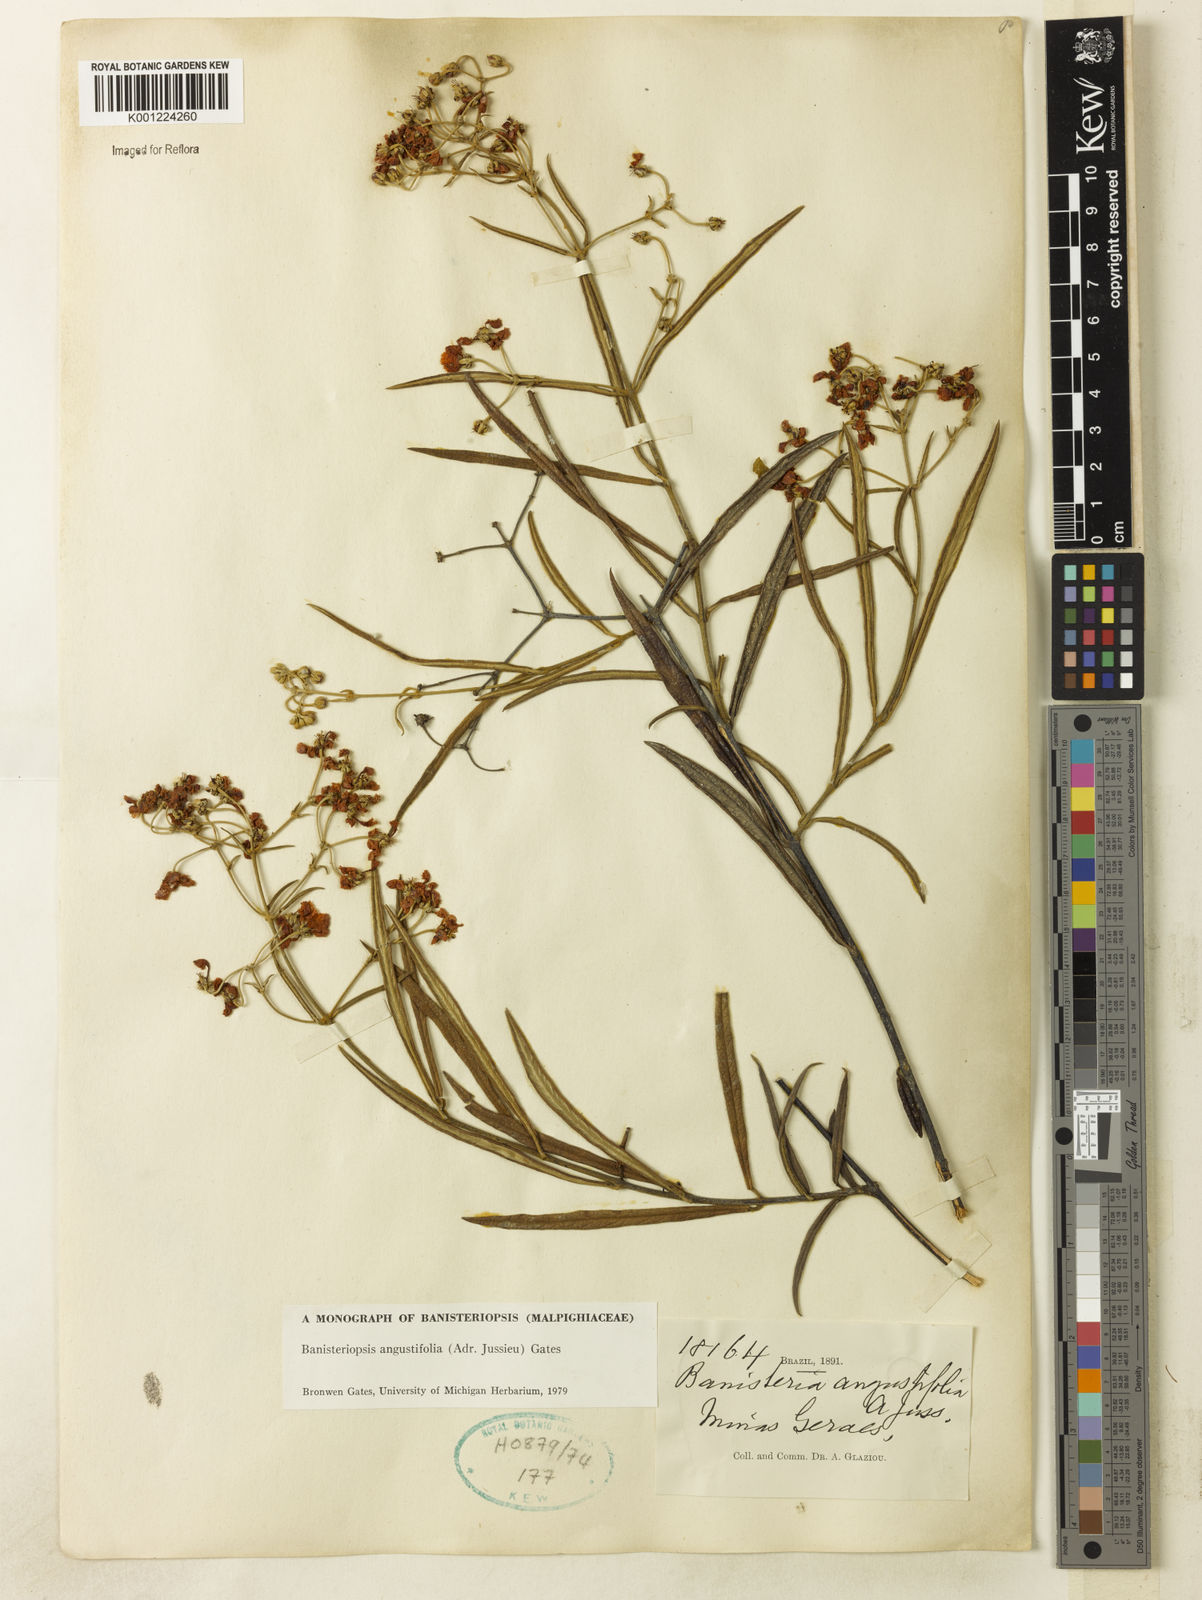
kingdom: Plantae
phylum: Tracheophyta
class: Magnoliopsida
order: Malpighiales
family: Malpighiaceae
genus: Banisteriopsis
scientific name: Banisteriopsis angustifolia
